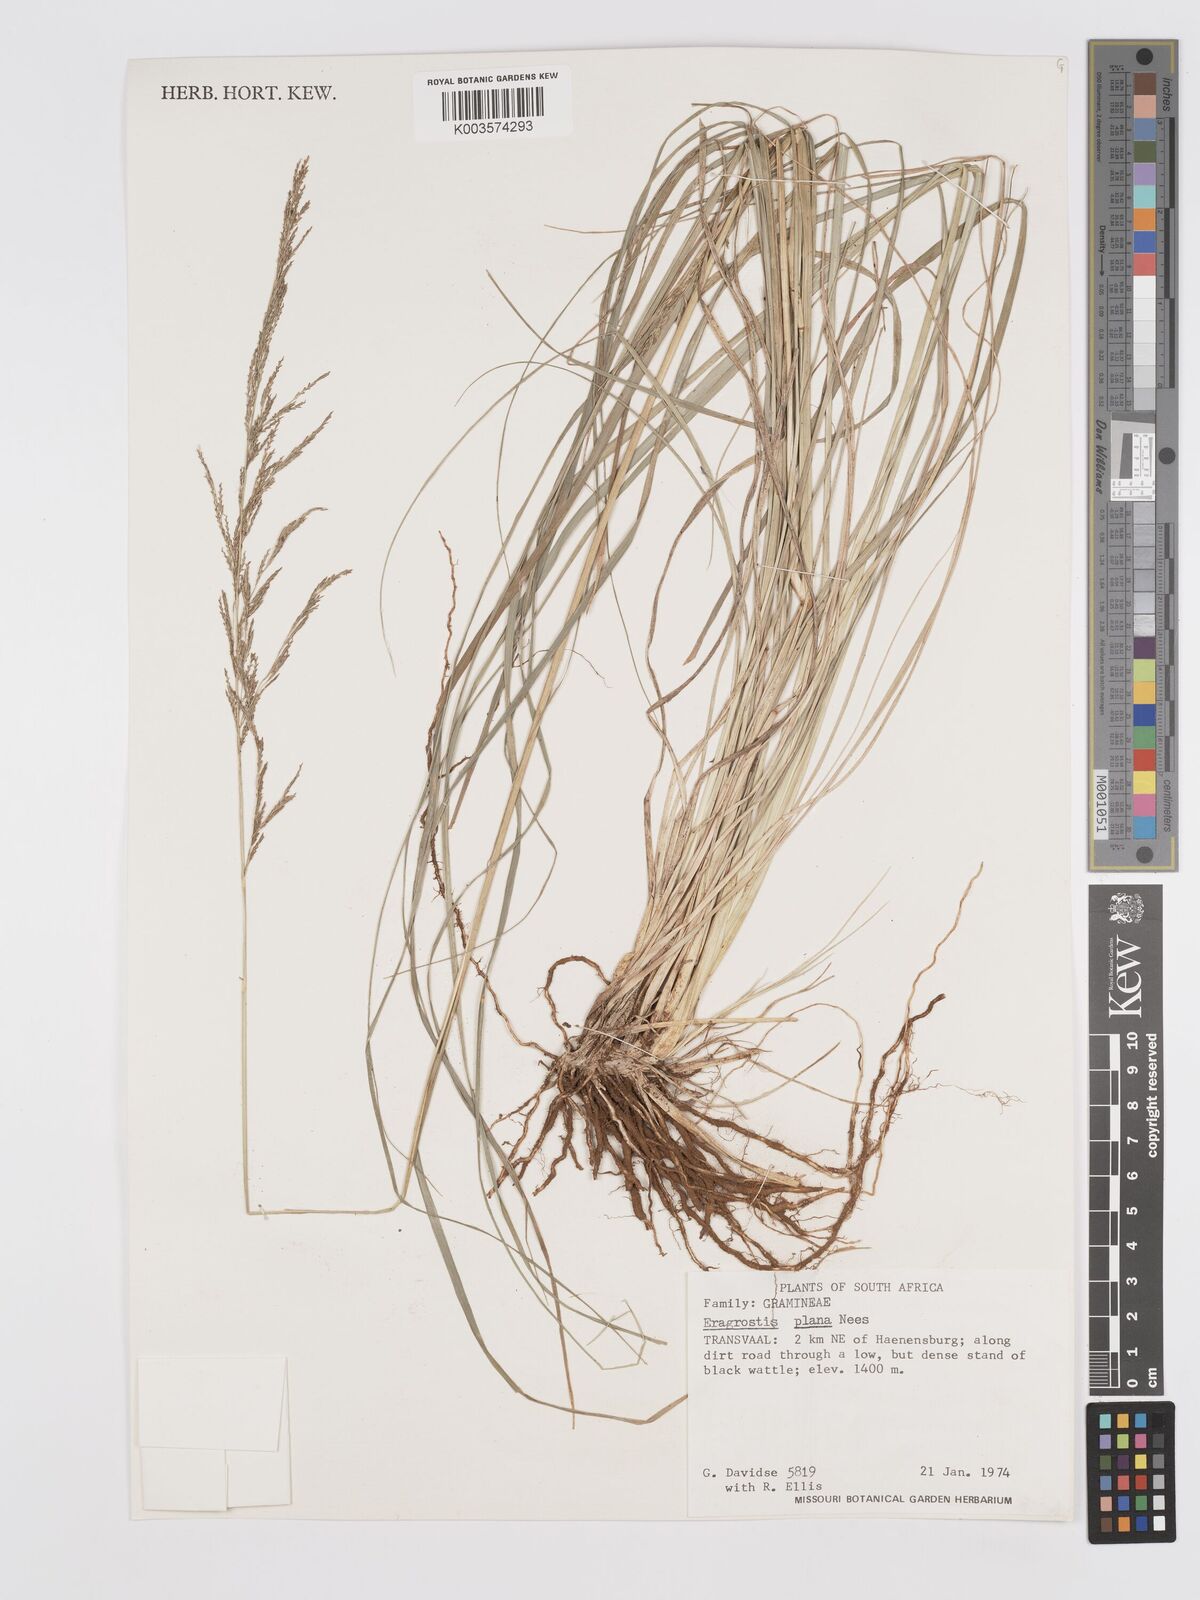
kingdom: Plantae
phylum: Tracheophyta
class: Liliopsida
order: Poales
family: Poaceae
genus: Eragrostis
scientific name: Eragrostis plana
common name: South african lovegrass
